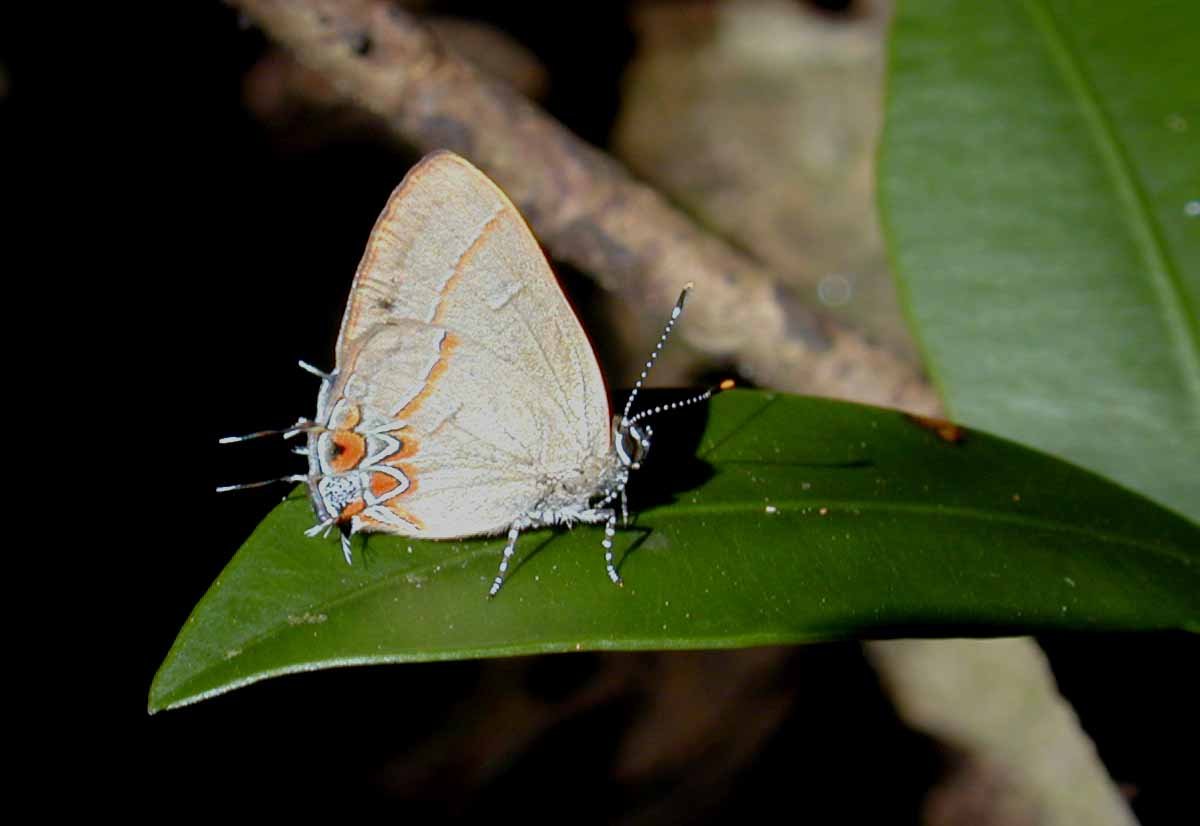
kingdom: Animalia
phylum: Arthropoda
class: Insecta
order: Lepidoptera
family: Lycaenidae
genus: Calycopis
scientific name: Calycopis partunda
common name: Origo Groundstreak
